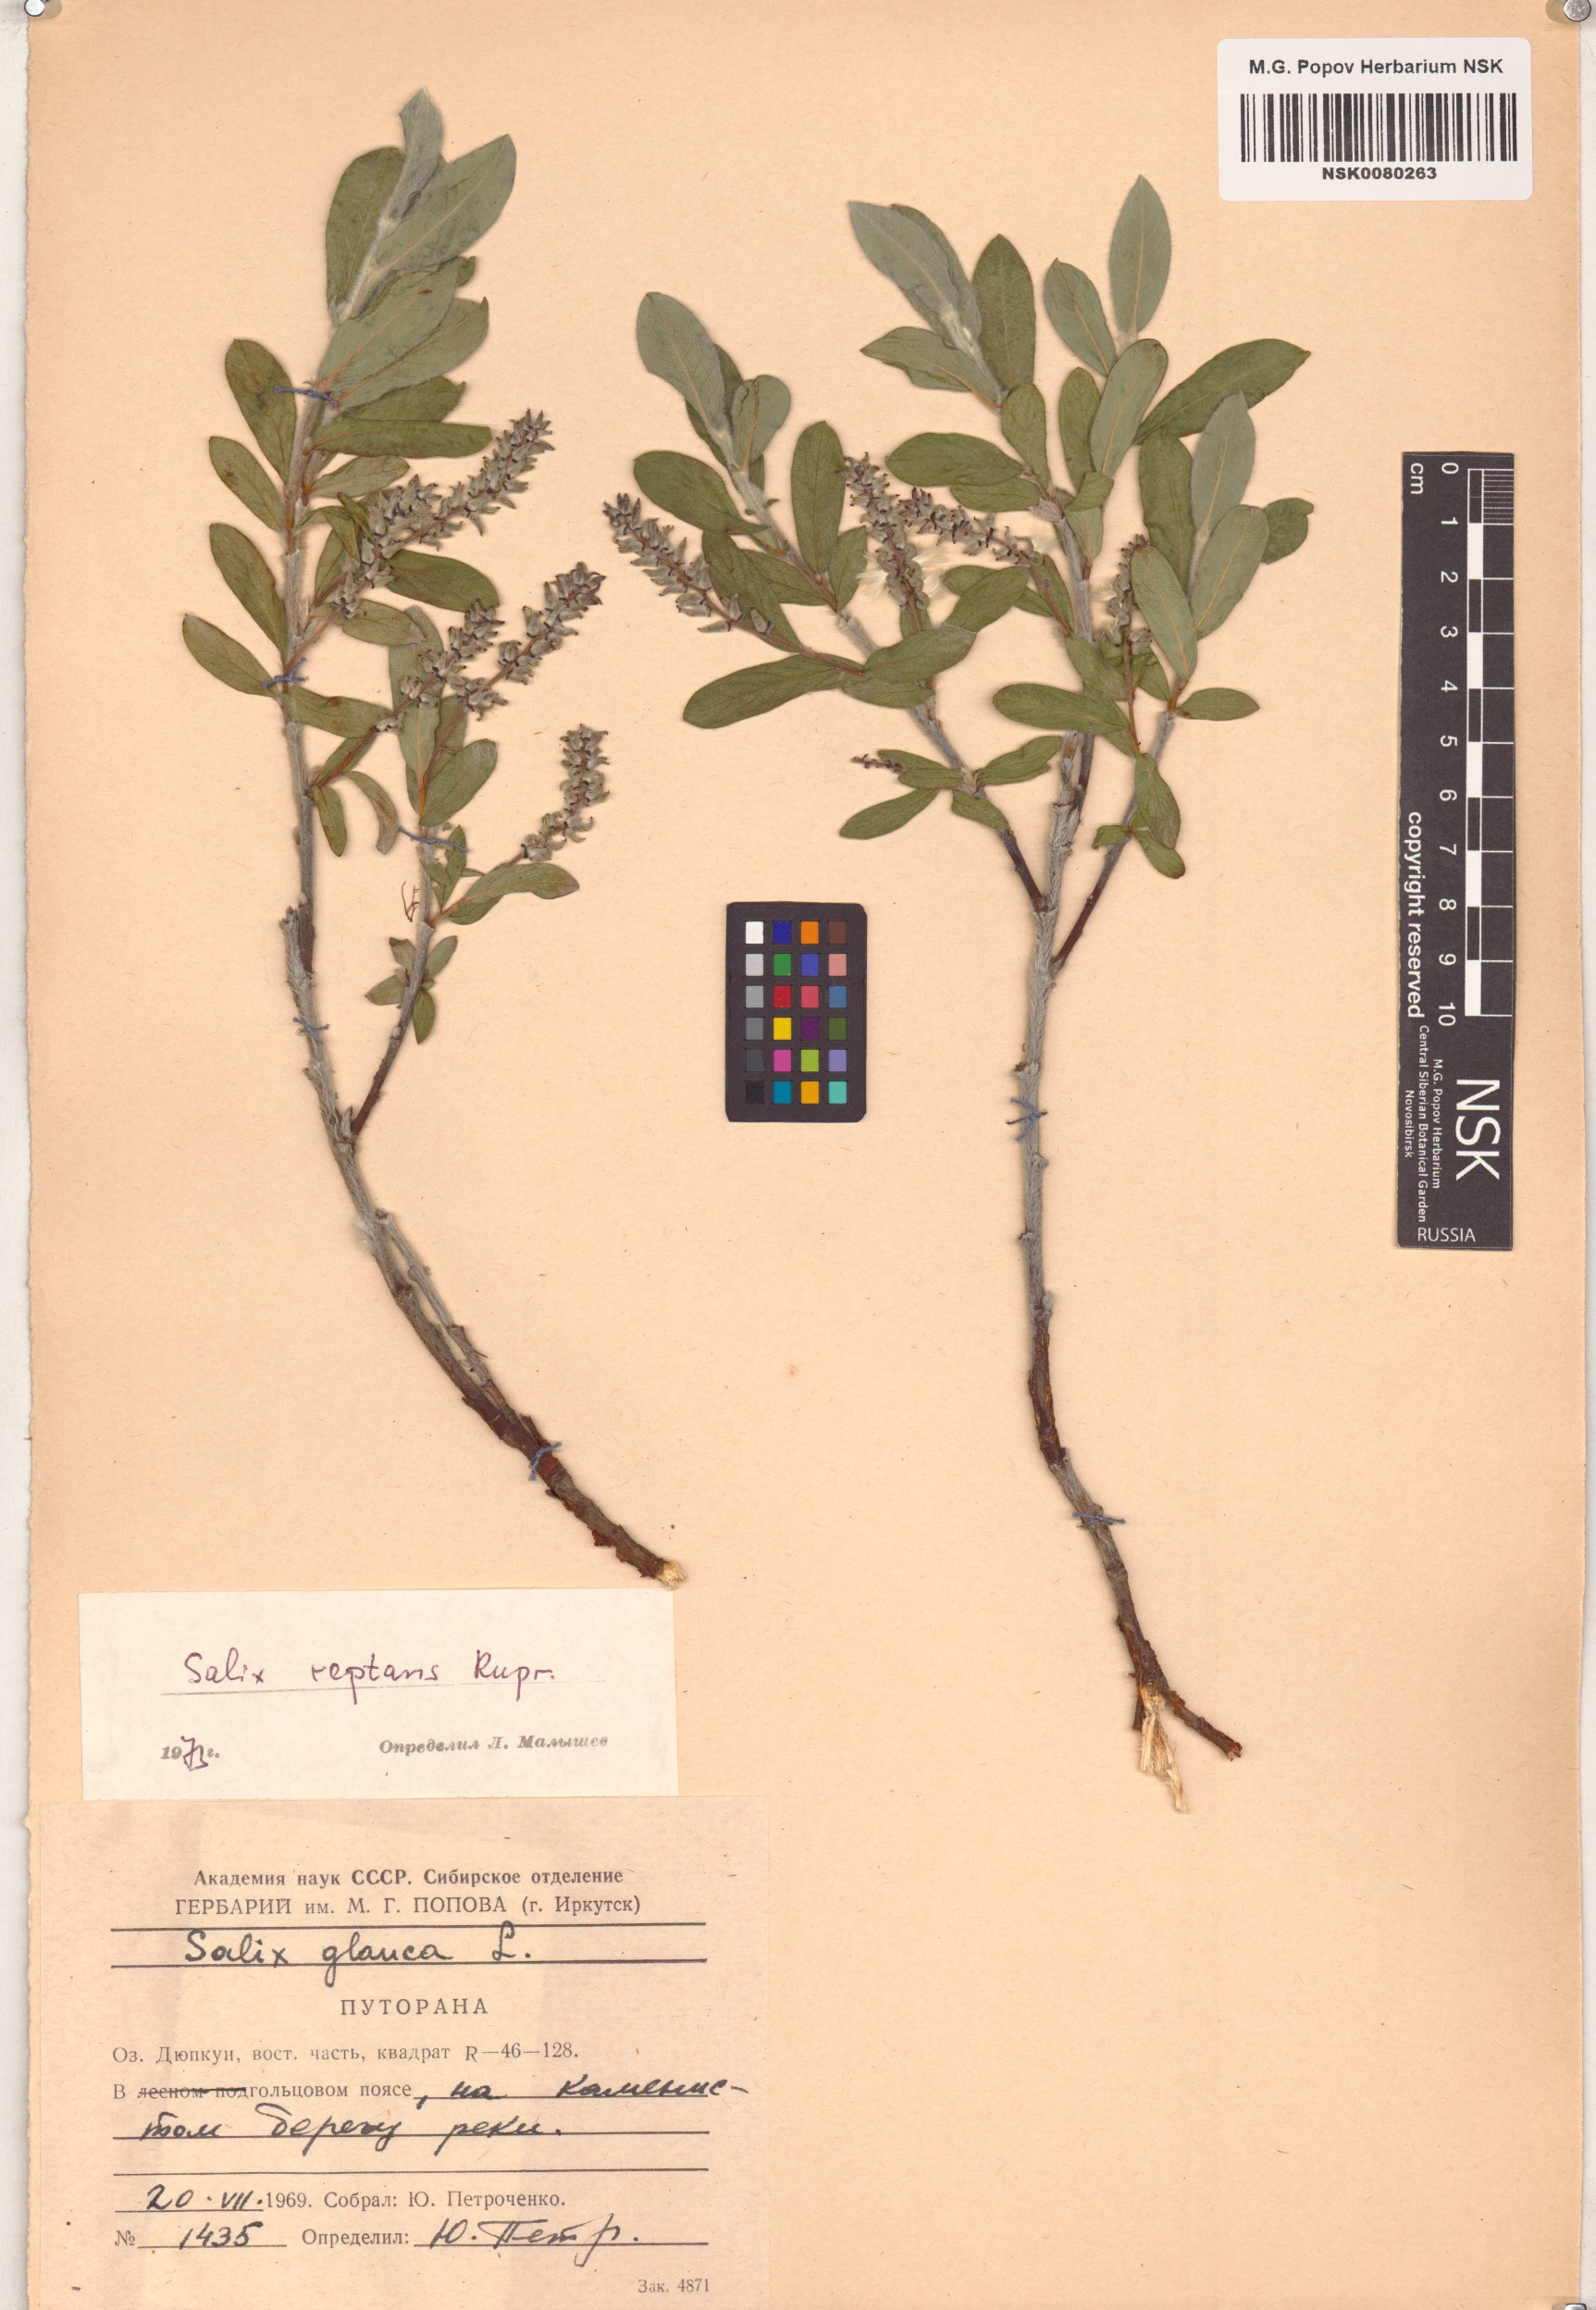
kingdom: Plantae
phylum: Tracheophyta
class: Magnoliopsida
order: Malpighiales
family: Salicaceae
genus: Salix
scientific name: Salix reptans
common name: Arctic creeping willow
